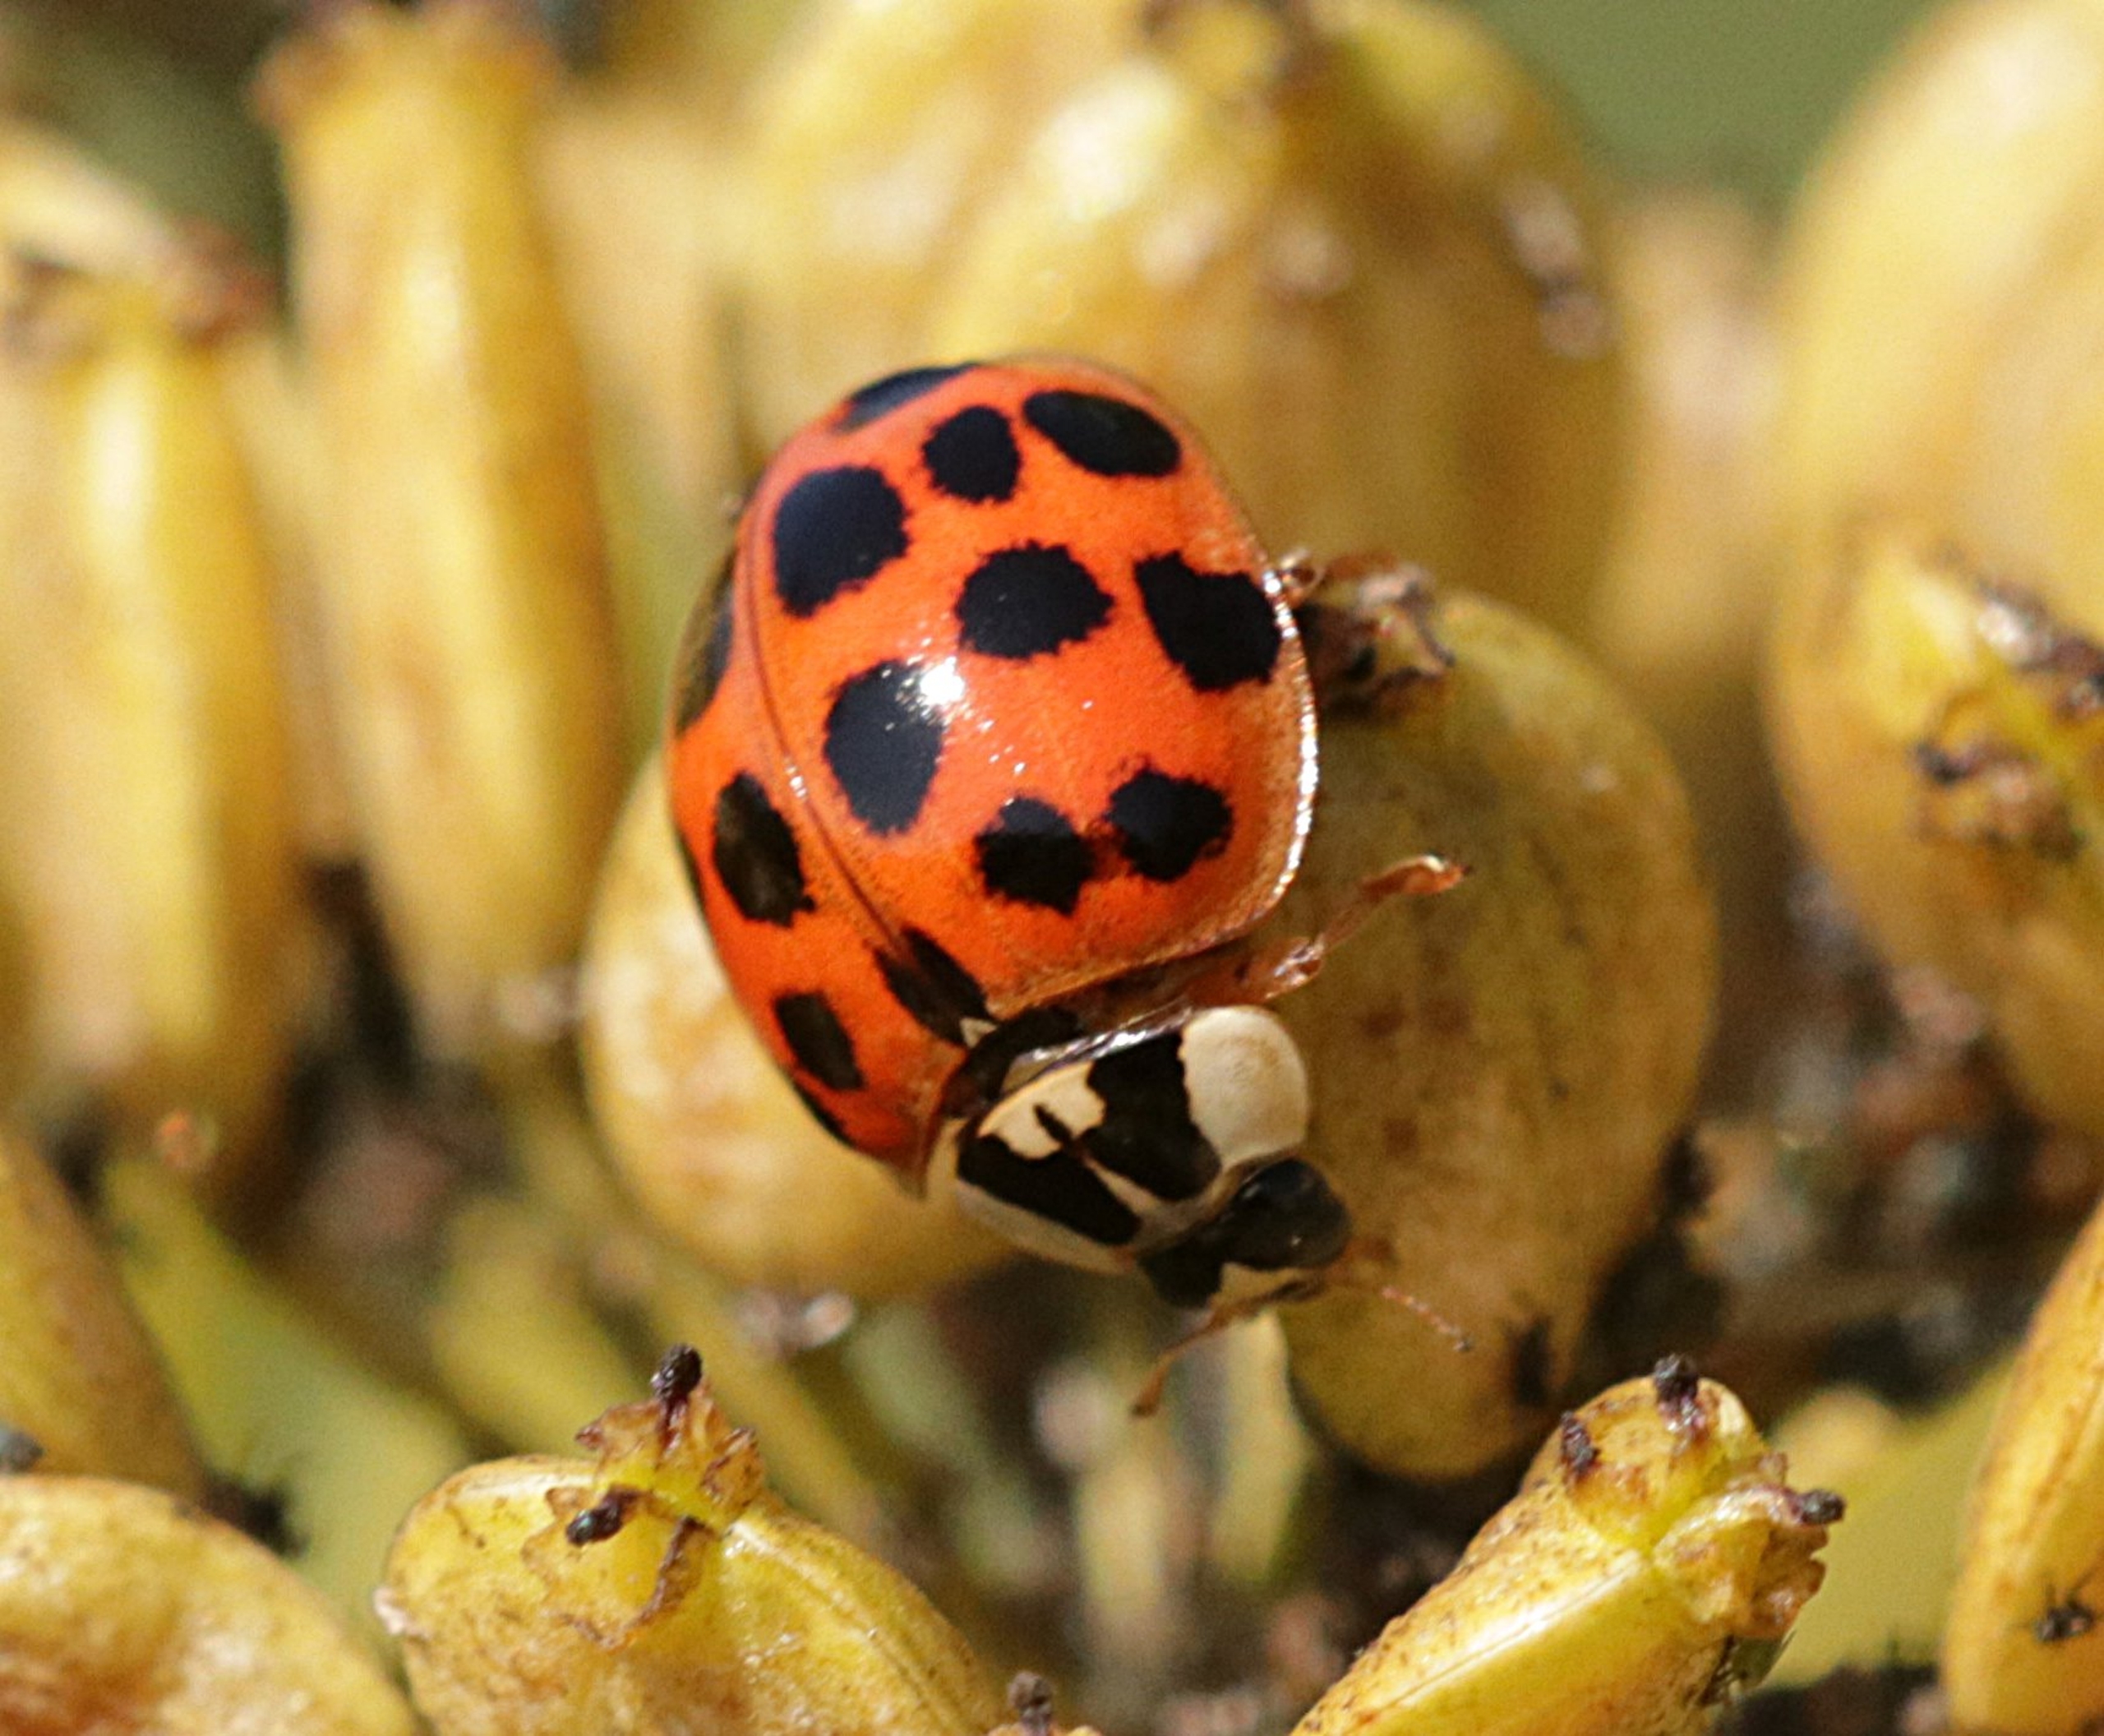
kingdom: Animalia
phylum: Arthropoda
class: Insecta
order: Coleoptera
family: Coccinellidae
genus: Harmonia
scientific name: Harmonia axyridis
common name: Harlekinmariehøne
